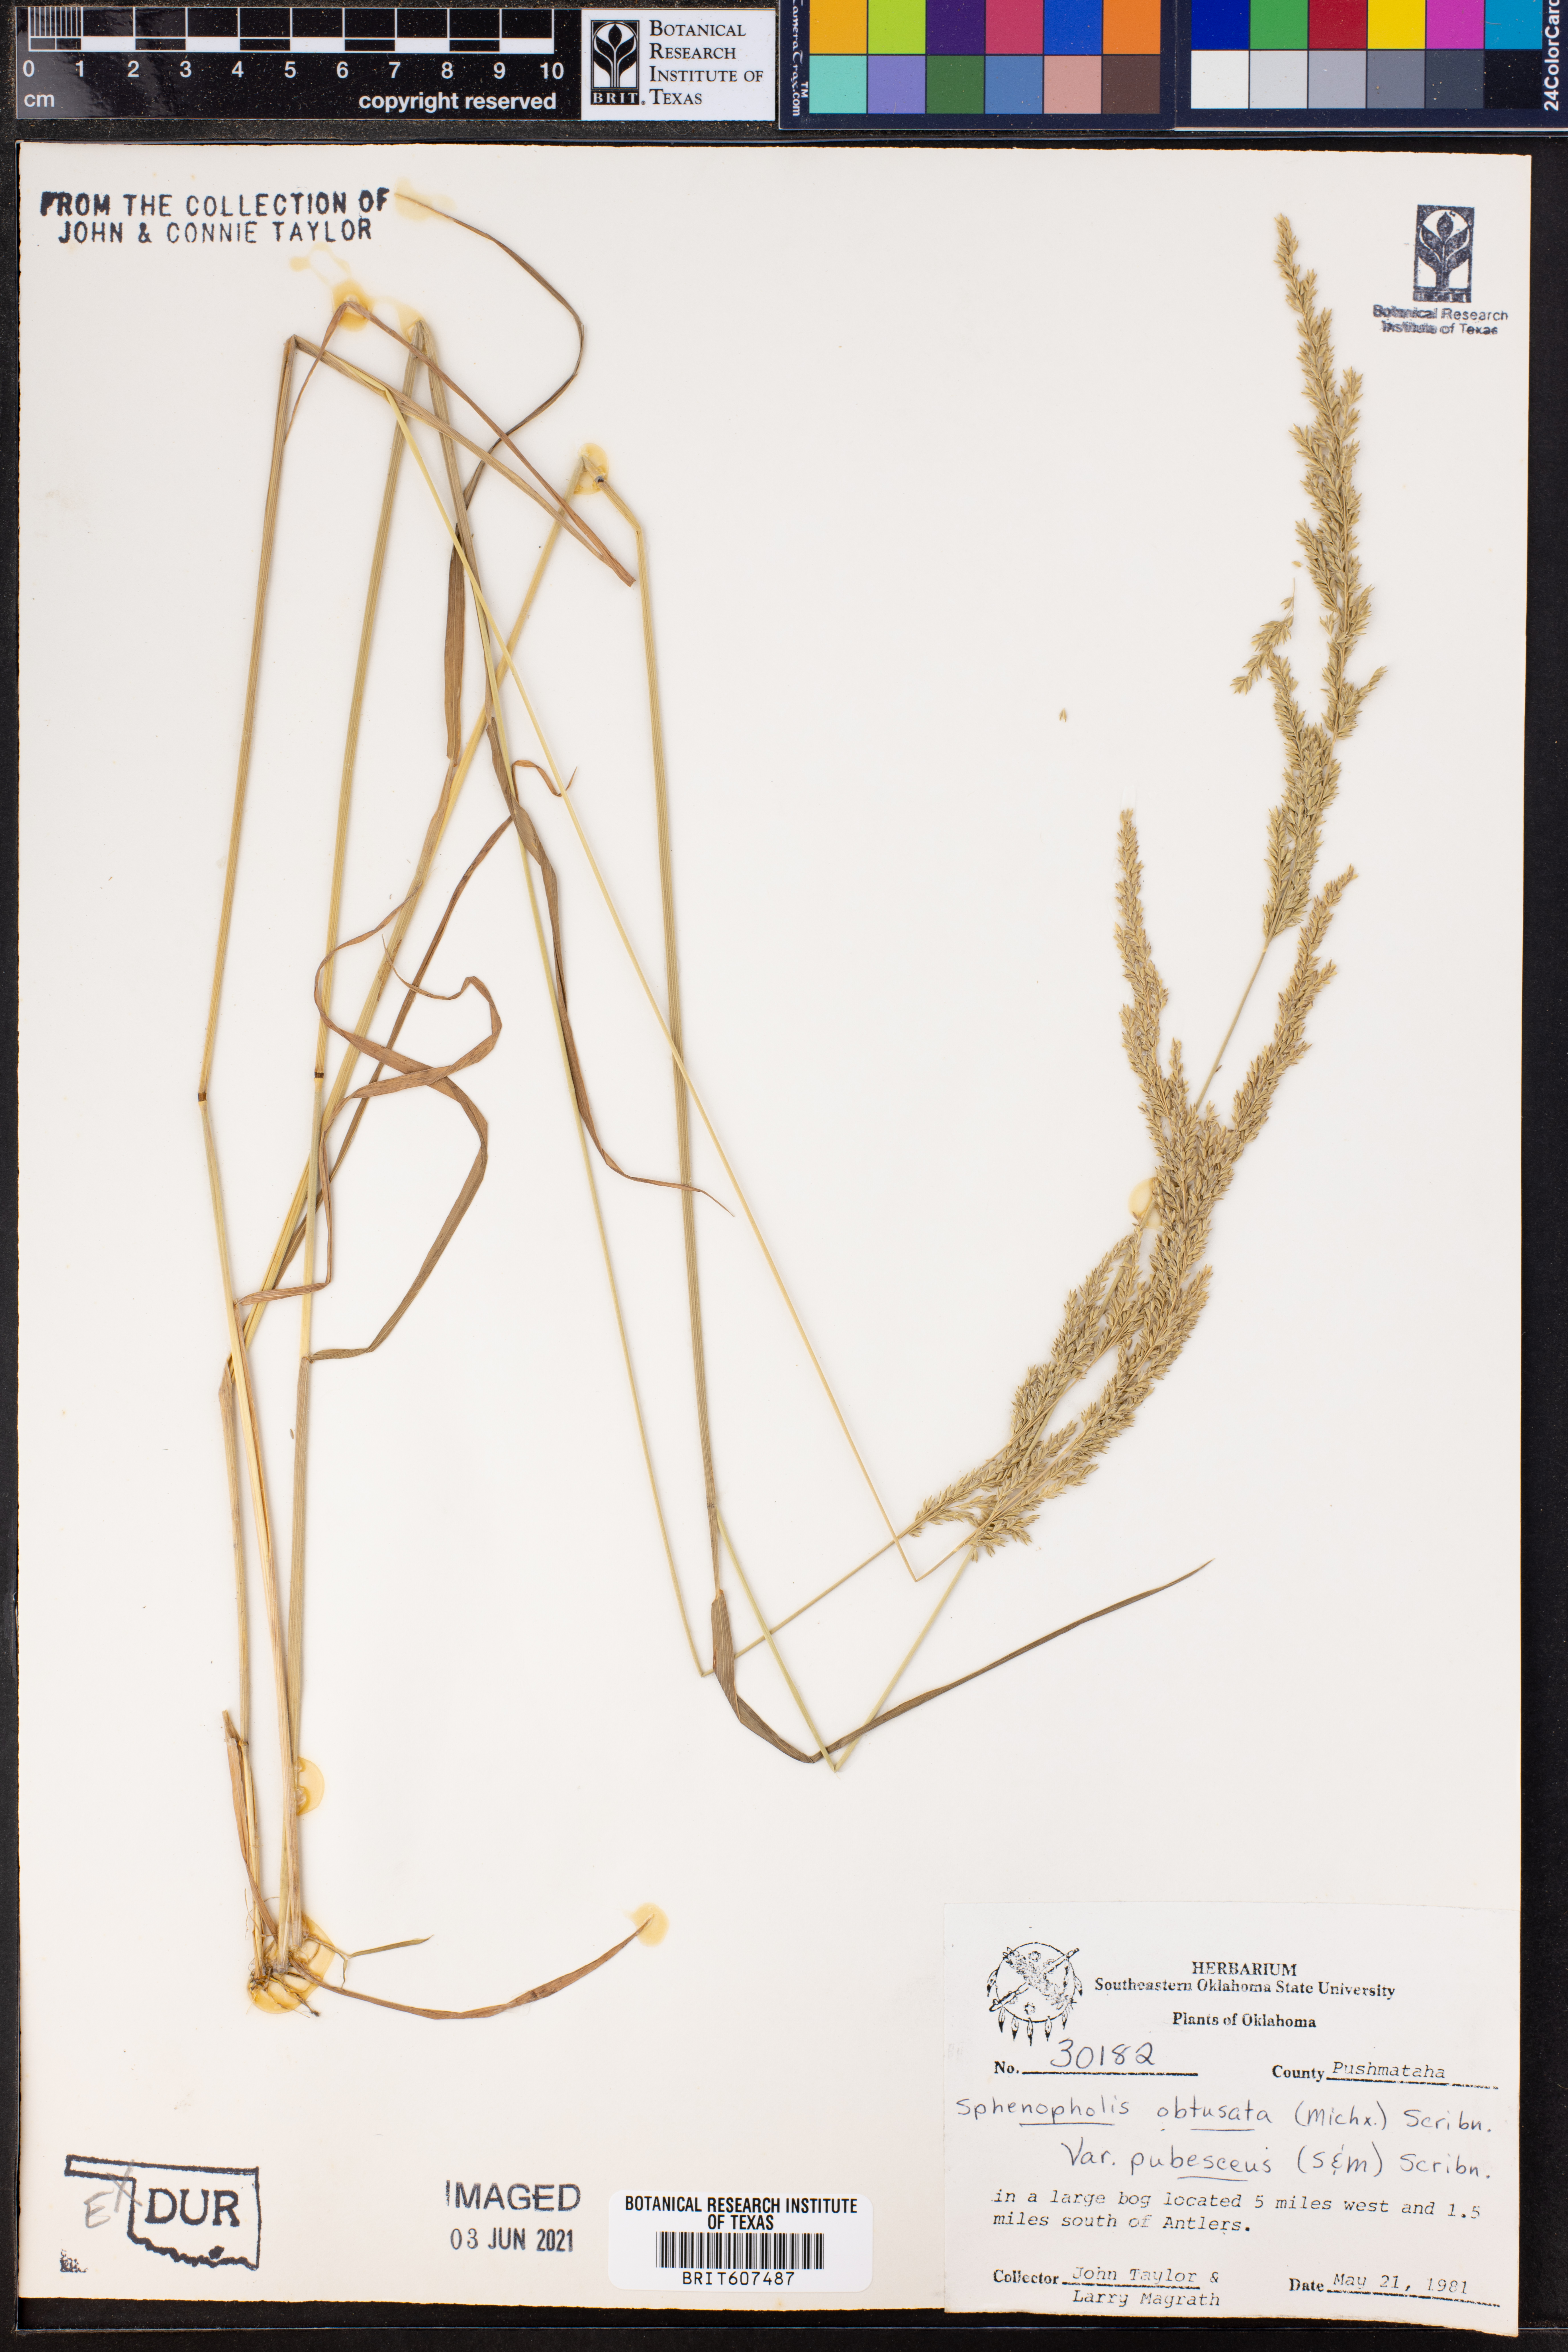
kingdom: Plantae
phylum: Tracheophyta
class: Liliopsida
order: Poales
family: Poaceae
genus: Sphenopholis
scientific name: Sphenopholis obtusata
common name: Prairie grass
